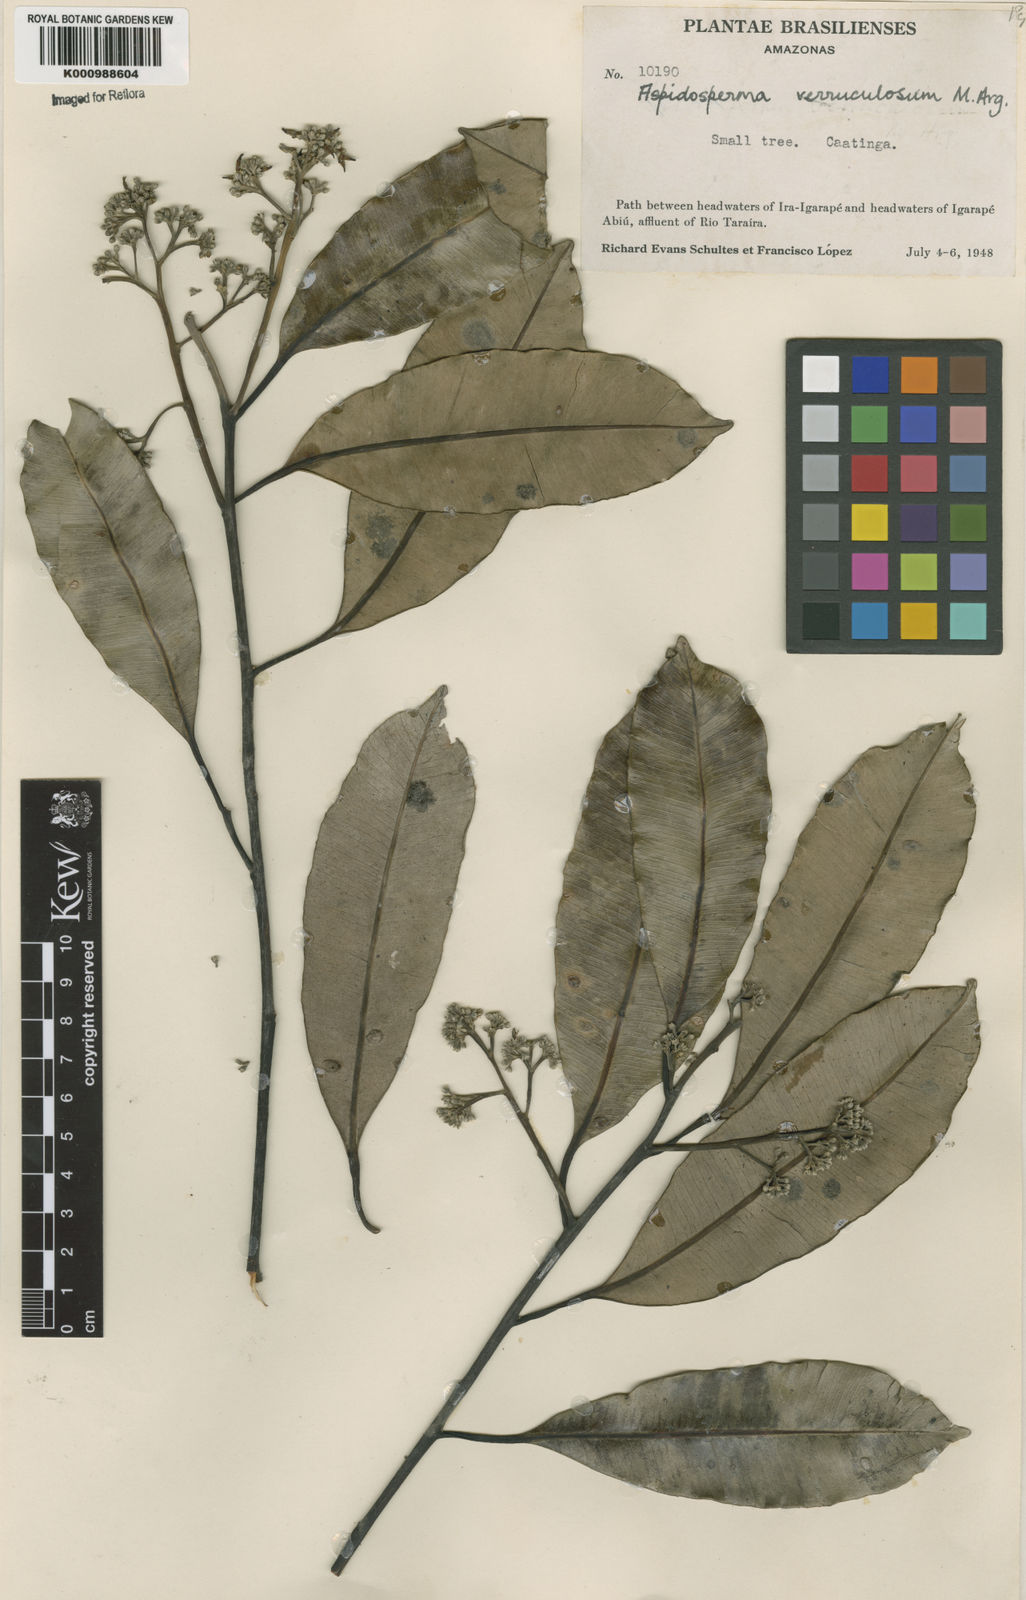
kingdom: Plantae
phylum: Tracheophyta
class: Magnoliopsida
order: Gentianales
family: Apocynaceae
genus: Aspidosperma
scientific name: Aspidosperma
